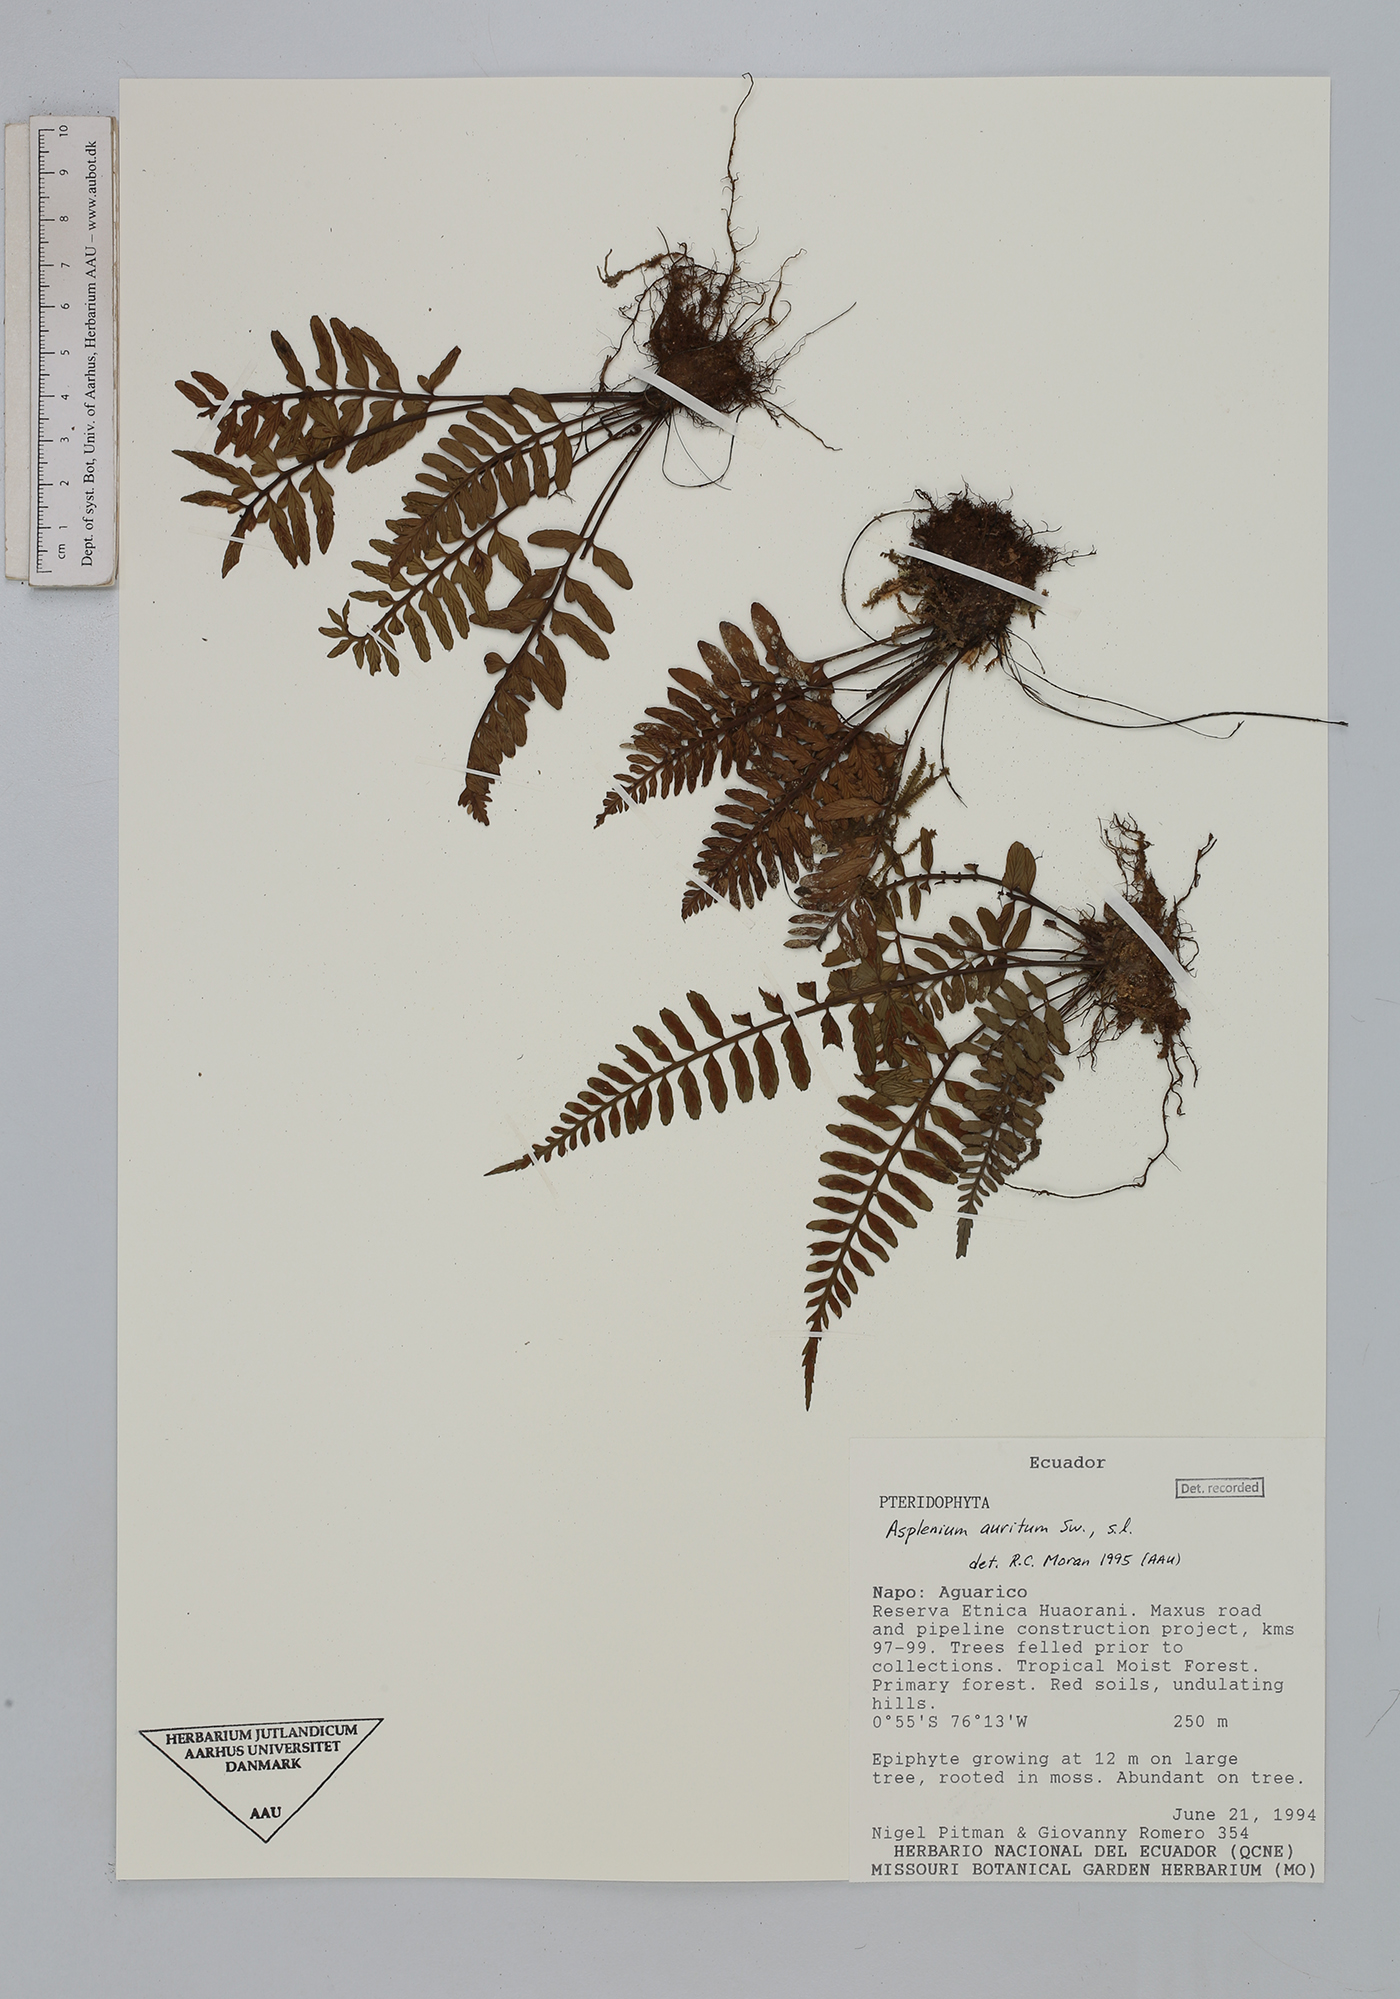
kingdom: Plantae
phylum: Tracheophyta
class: Polypodiopsida
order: Polypodiales
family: Aspleniaceae
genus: Asplenium
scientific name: Asplenium auritum
